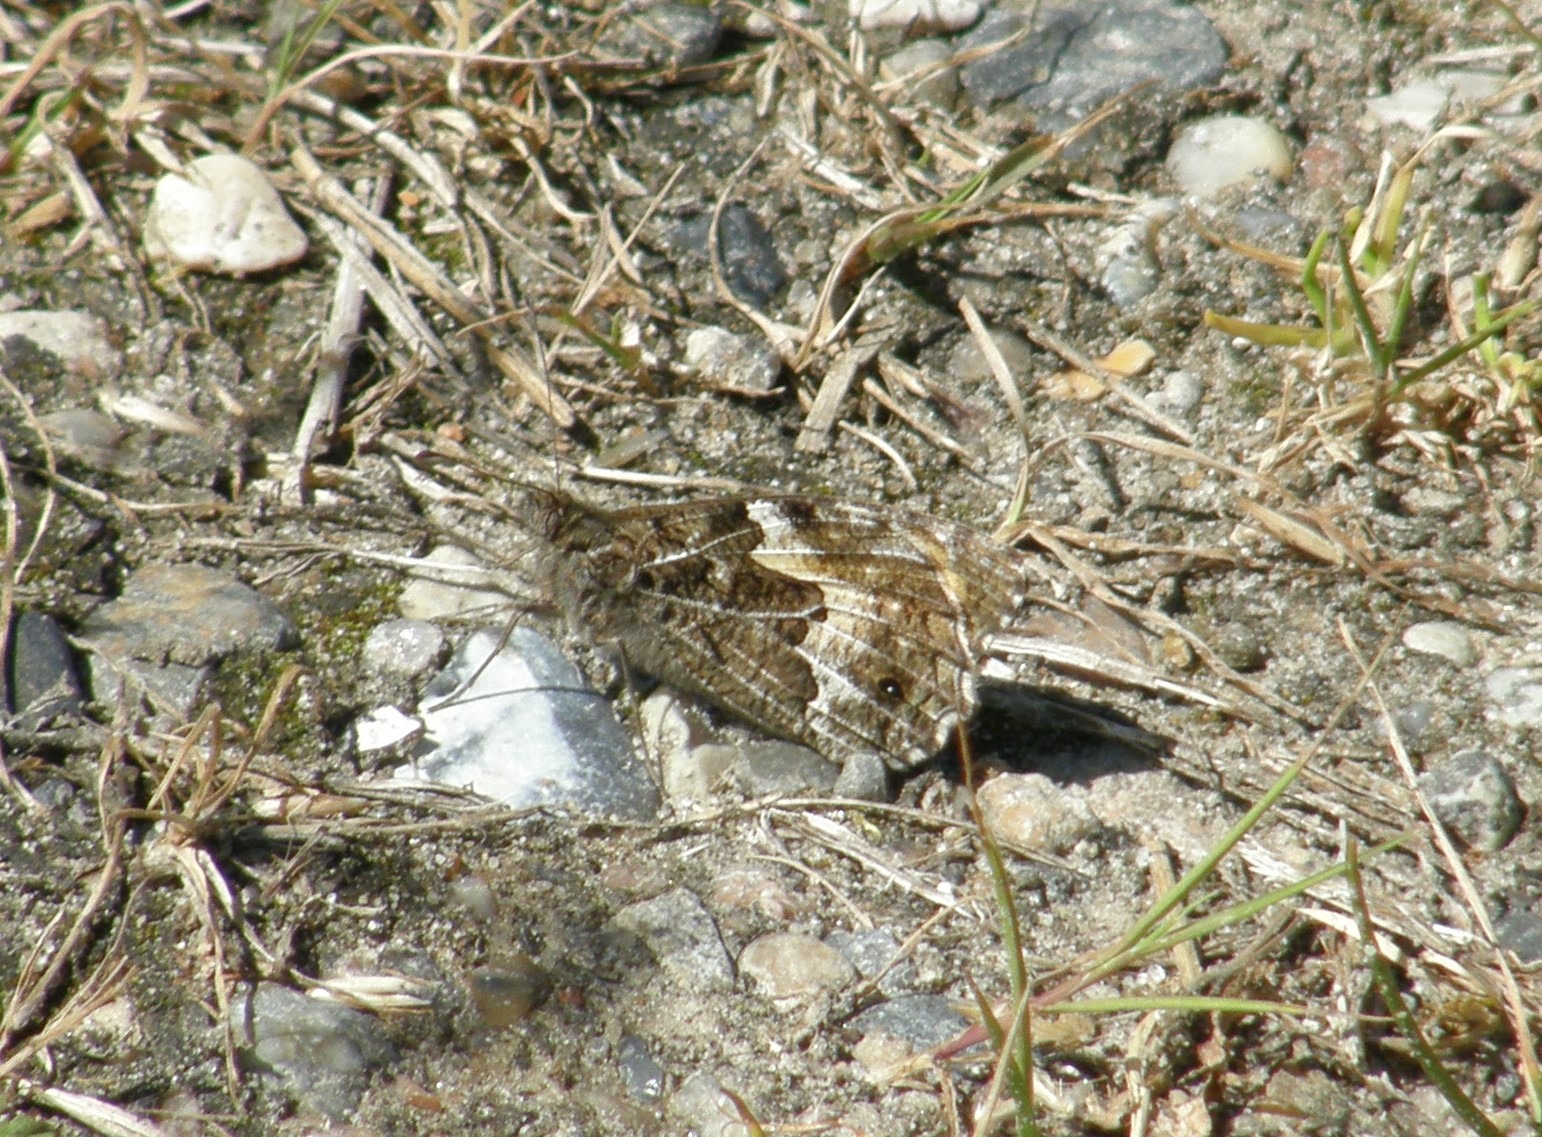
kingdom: Animalia
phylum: Arthropoda
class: Insecta
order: Lepidoptera
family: Nymphalidae
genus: Hipparchia
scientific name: Hipparchia semele
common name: Sandrandøje
